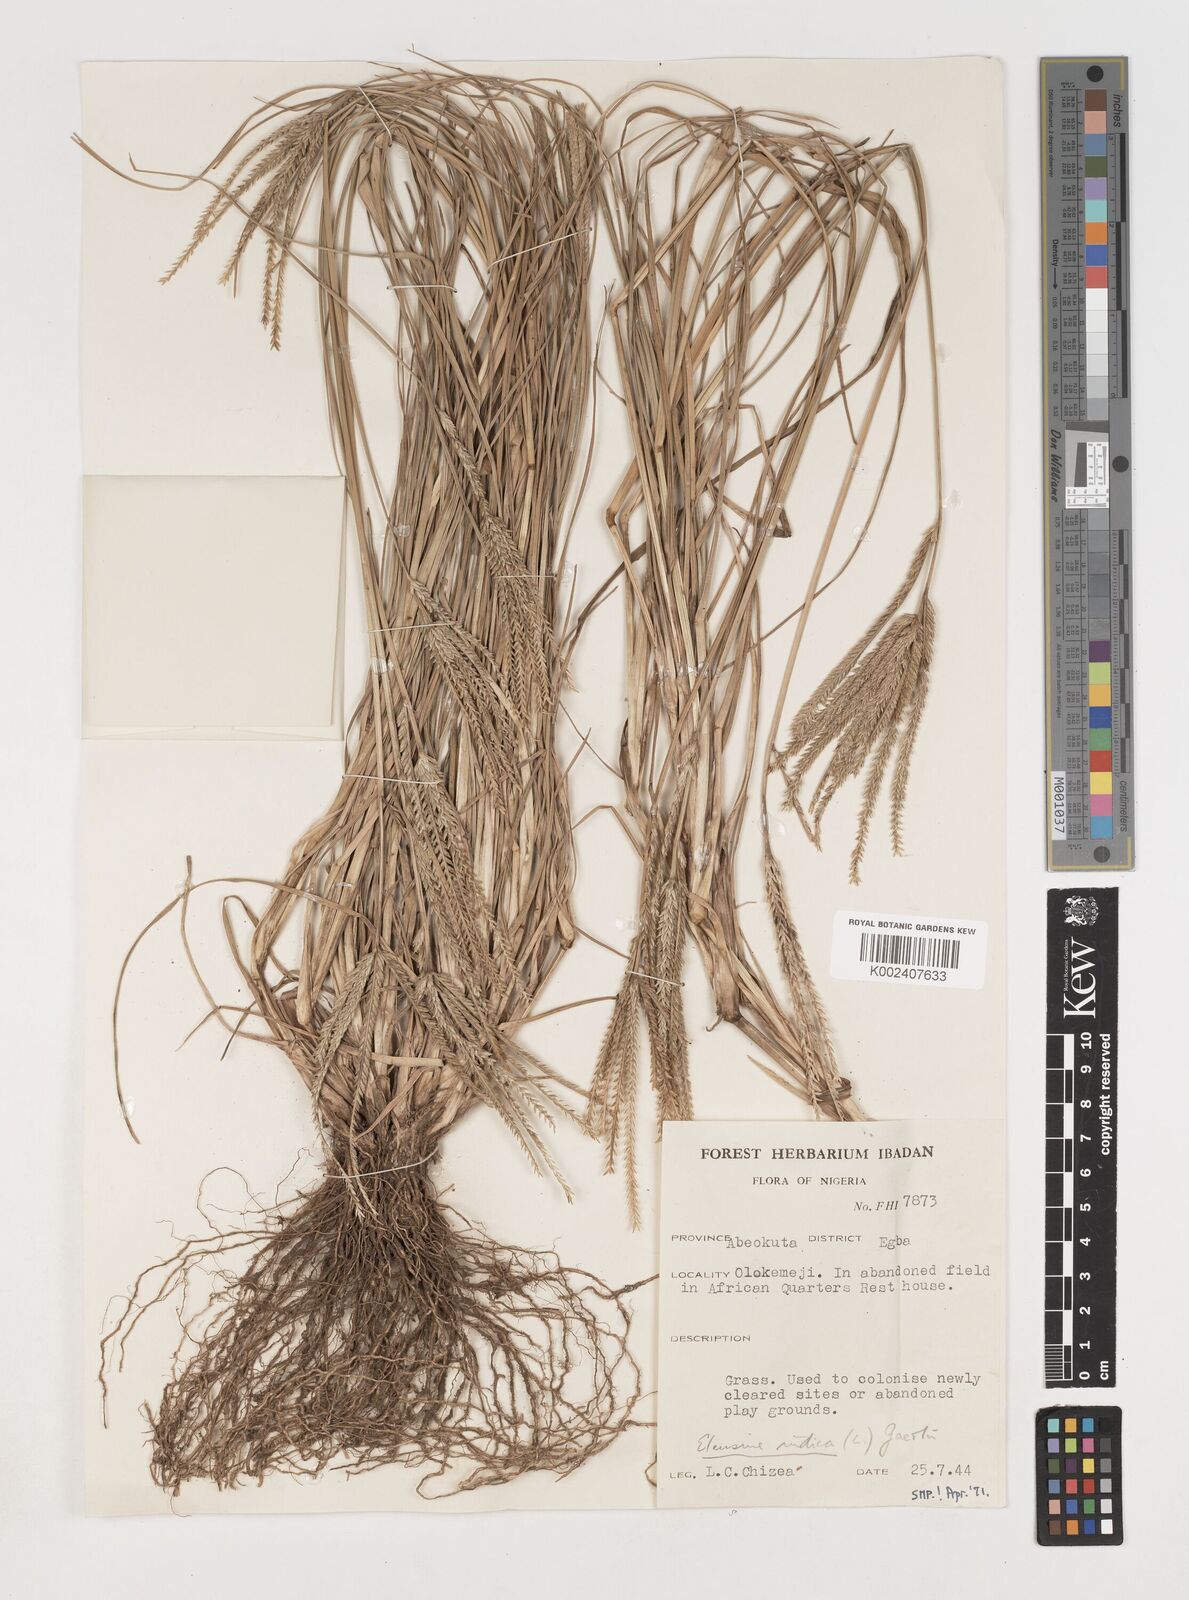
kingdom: Plantae
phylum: Tracheophyta
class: Liliopsida
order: Poales
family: Poaceae
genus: Eleusine
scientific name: Eleusine indica
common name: Yard-grass
